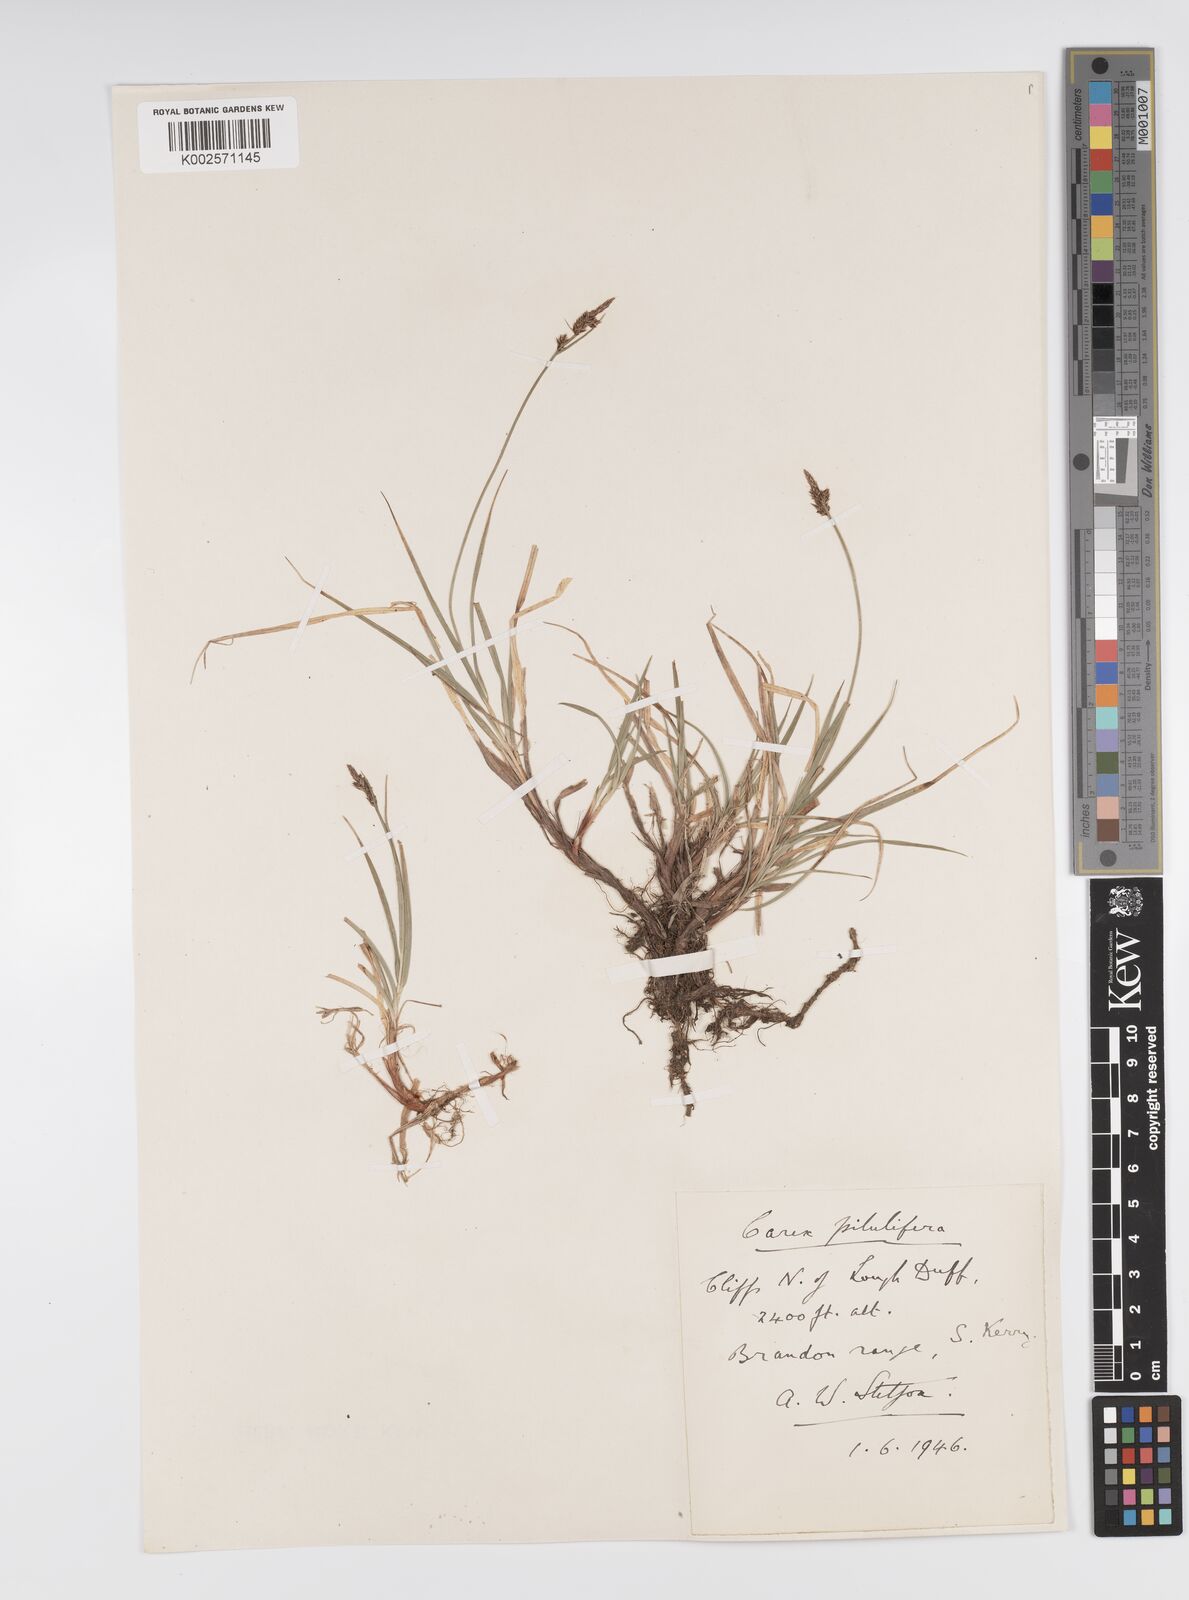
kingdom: Plantae
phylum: Tracheophyta
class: Liliopsida
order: Poales
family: Cyperaceae
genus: Carex
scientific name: Carex pilulifera
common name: Pill sedge
